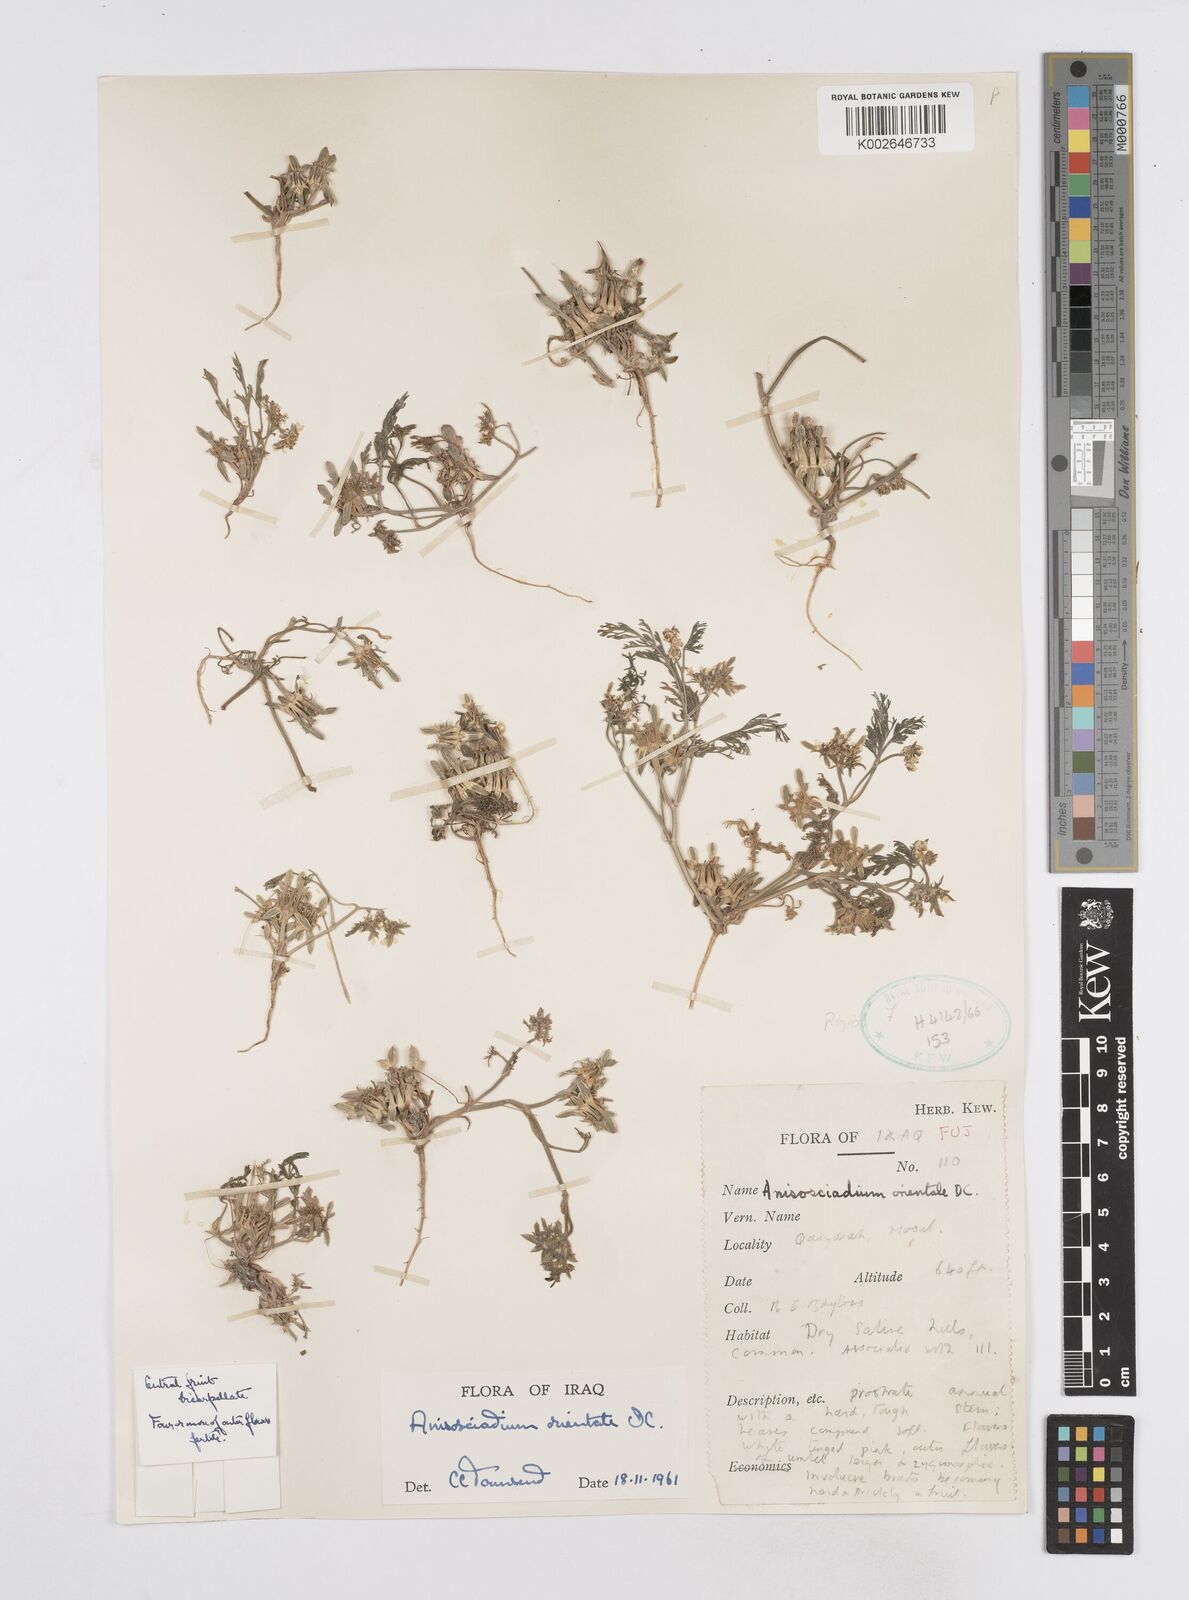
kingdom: Plantae
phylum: Tracheophyta
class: Magnoliopsida
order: Apiales
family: Apiaceae
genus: Anisosciadium
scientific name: Anisosciadium orientale
